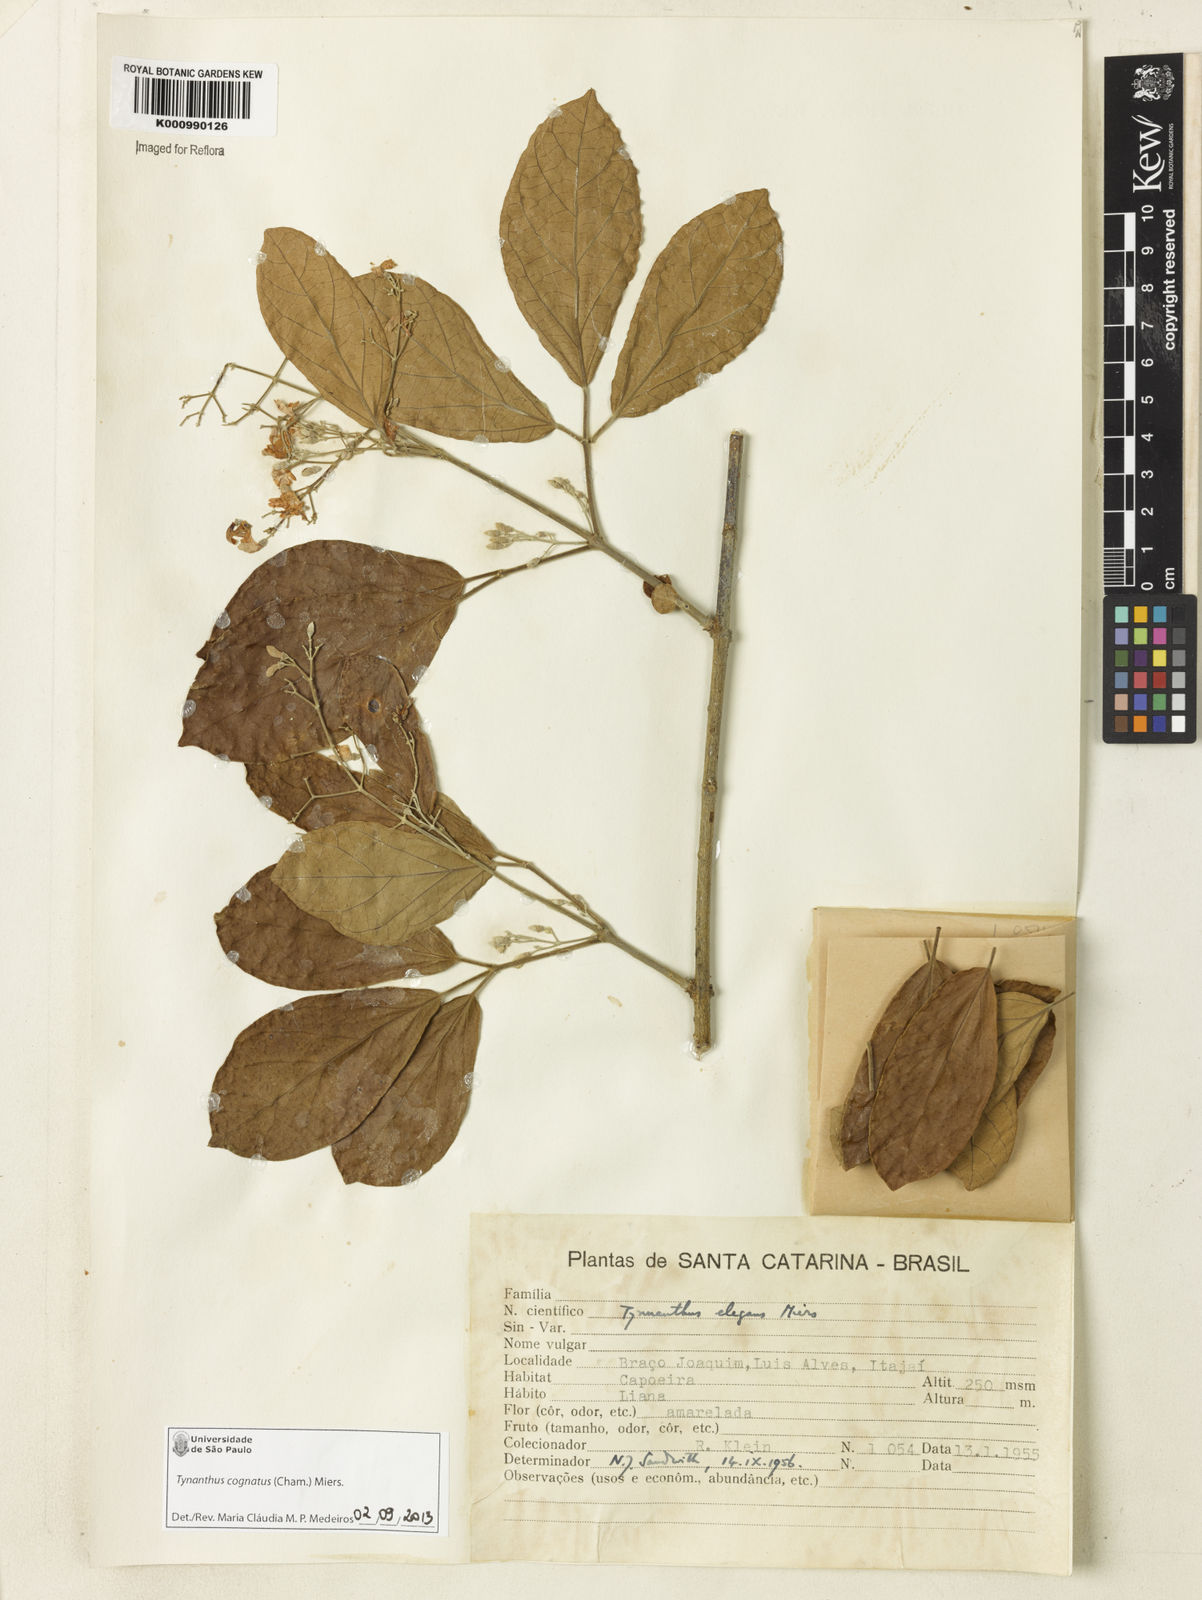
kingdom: Plantae
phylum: Tracheophyta
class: Magnoliopsida
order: Lamiales
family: Bignoniaceae
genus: Tynanthus
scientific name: Tynanthus cognatus
